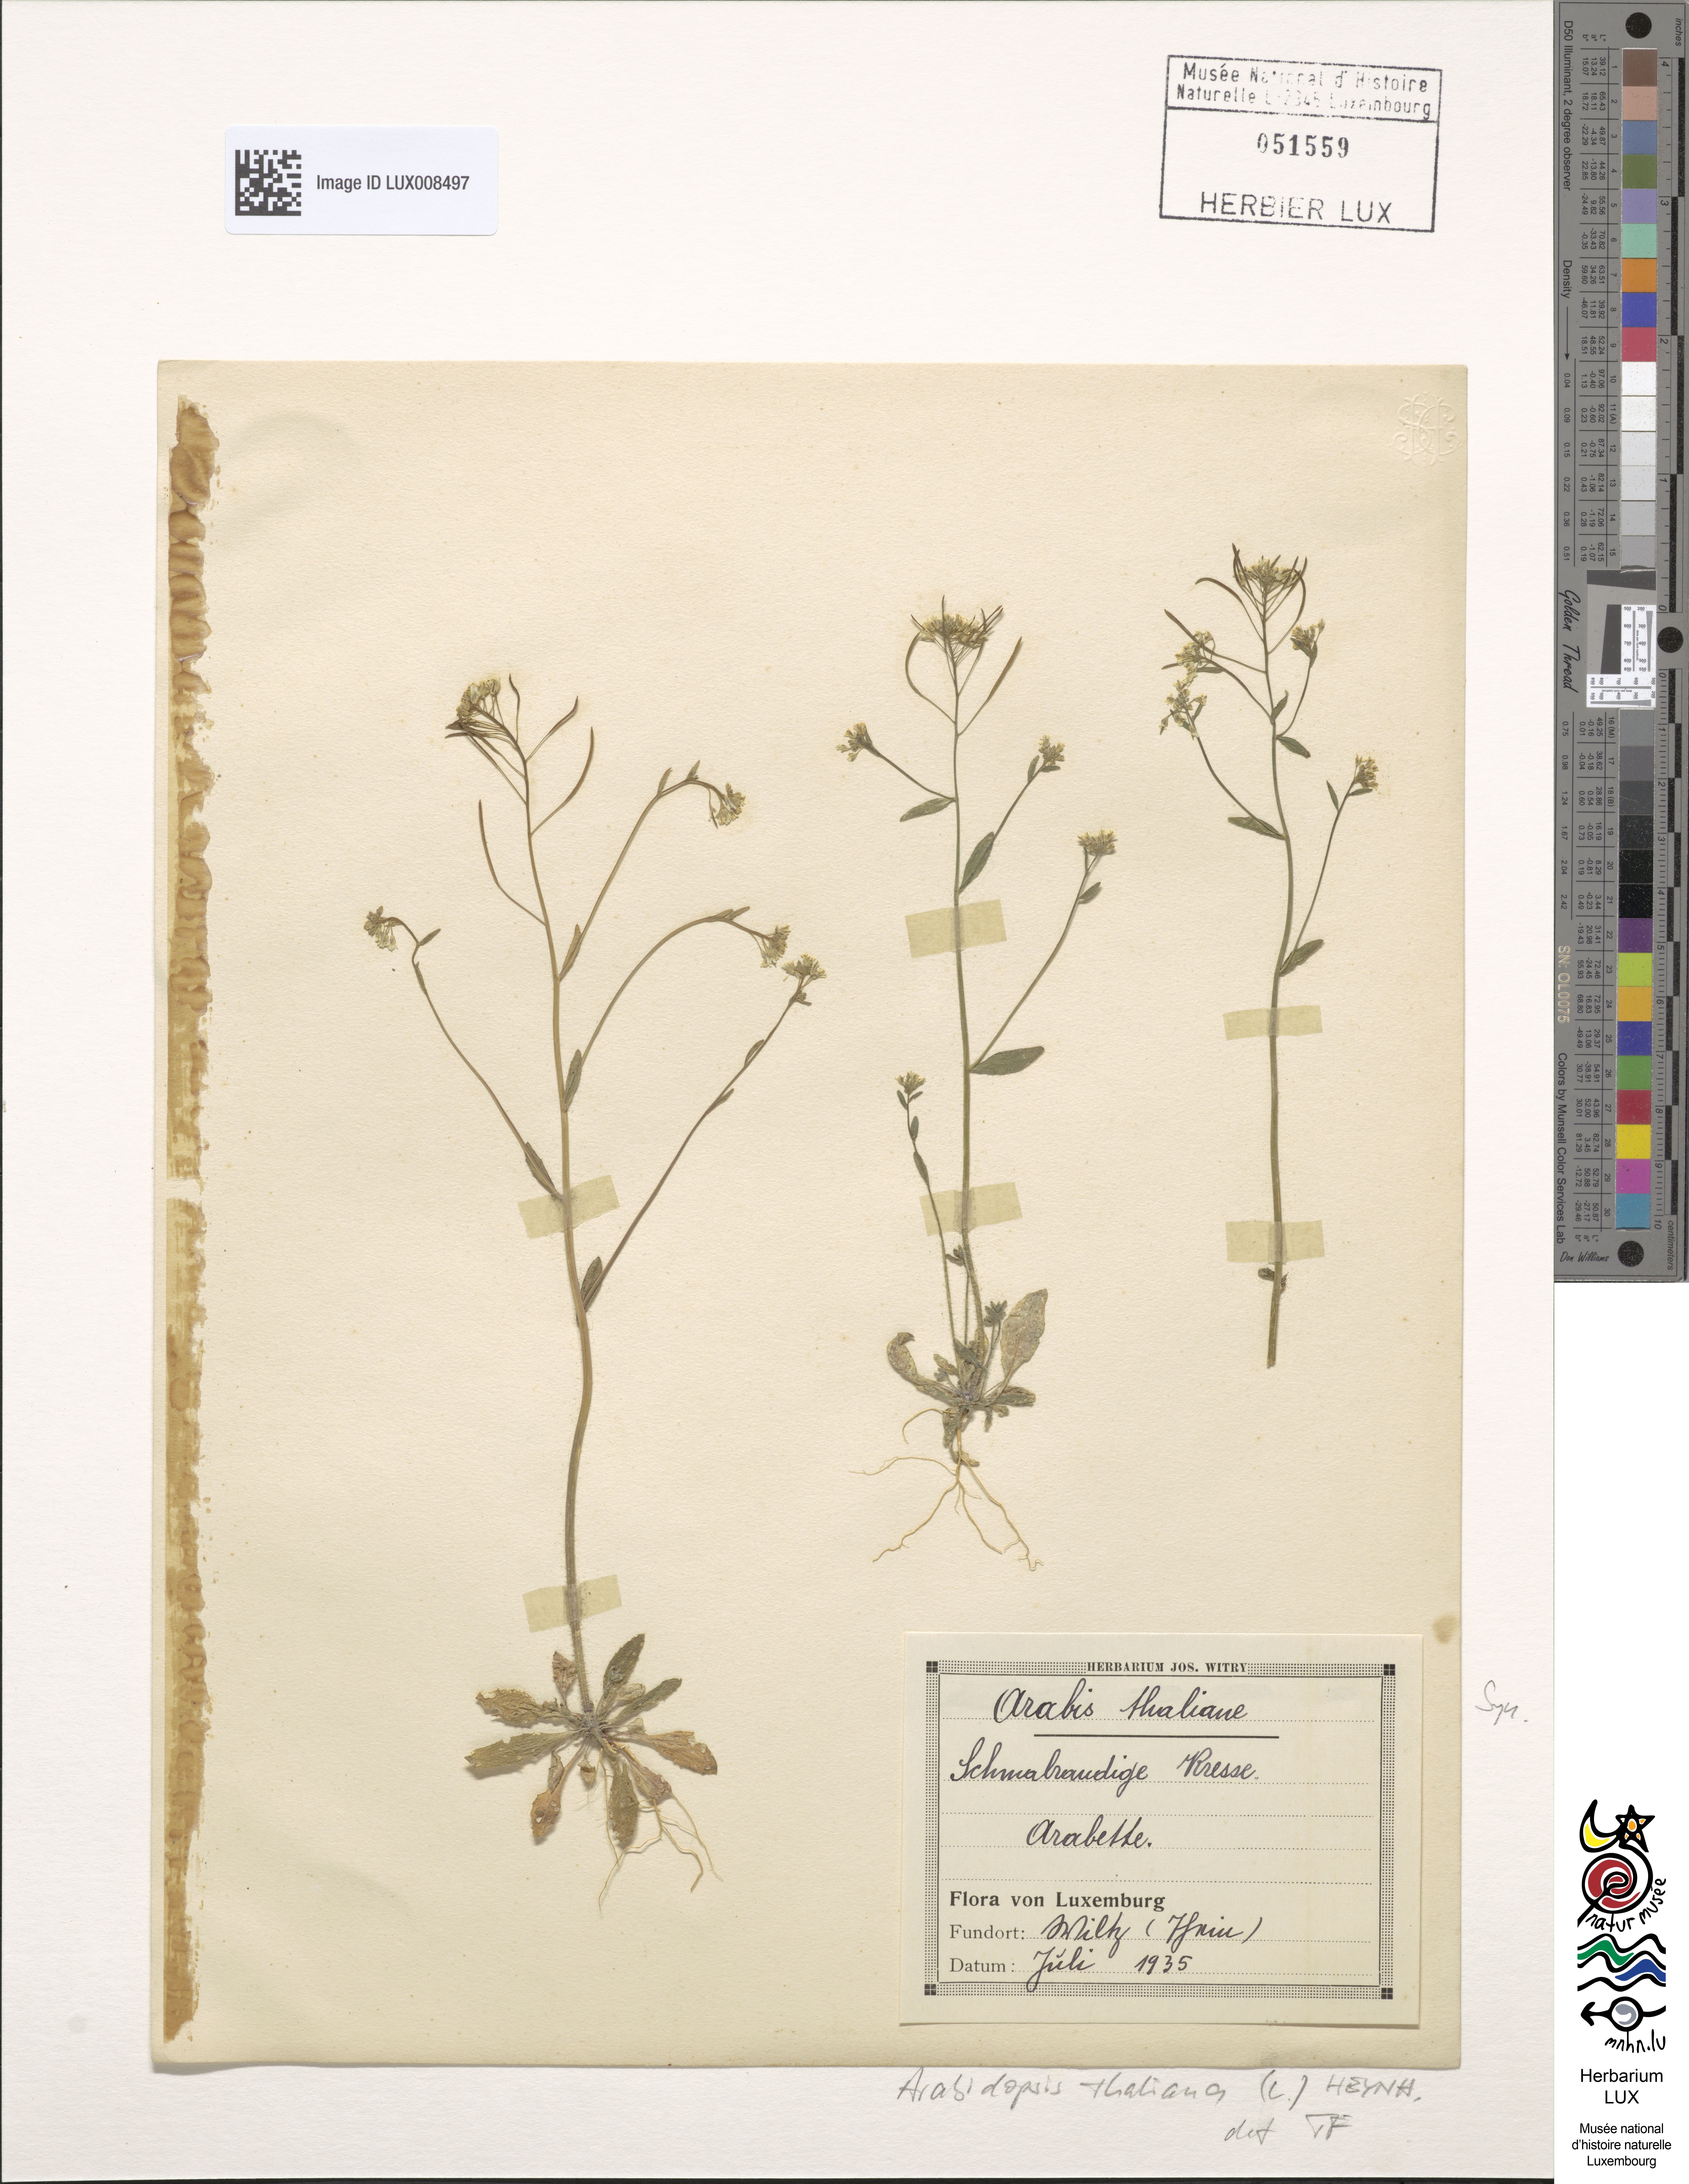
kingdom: Plantae
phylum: Tracheophyta
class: Magnoliopsida
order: Brassicales
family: Brassicaceae
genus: Arabidopsis
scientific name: Arabidopsis thaliana
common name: Thale cress
